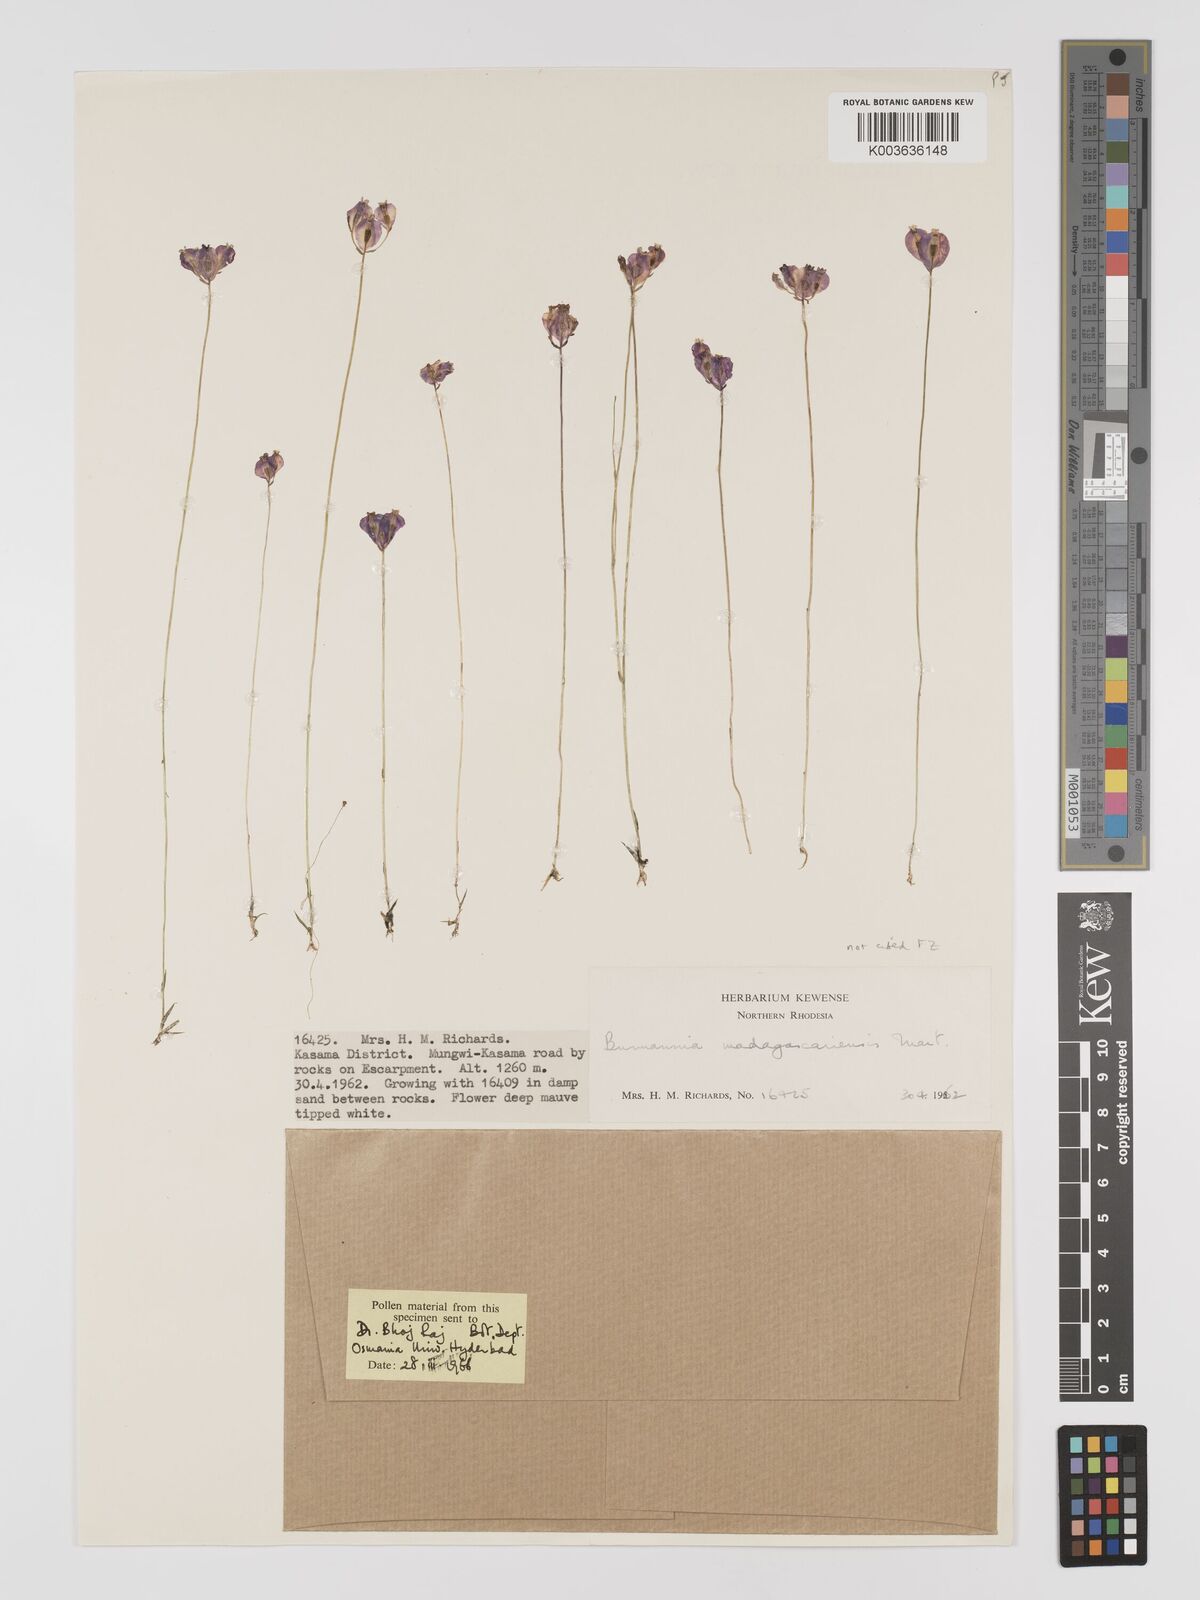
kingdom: Plantae
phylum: Tracheophyta
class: Liliopsida
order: Dioscoreales
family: Burmanniaceae
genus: Burmannia
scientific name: Burmannia madagascariensis
